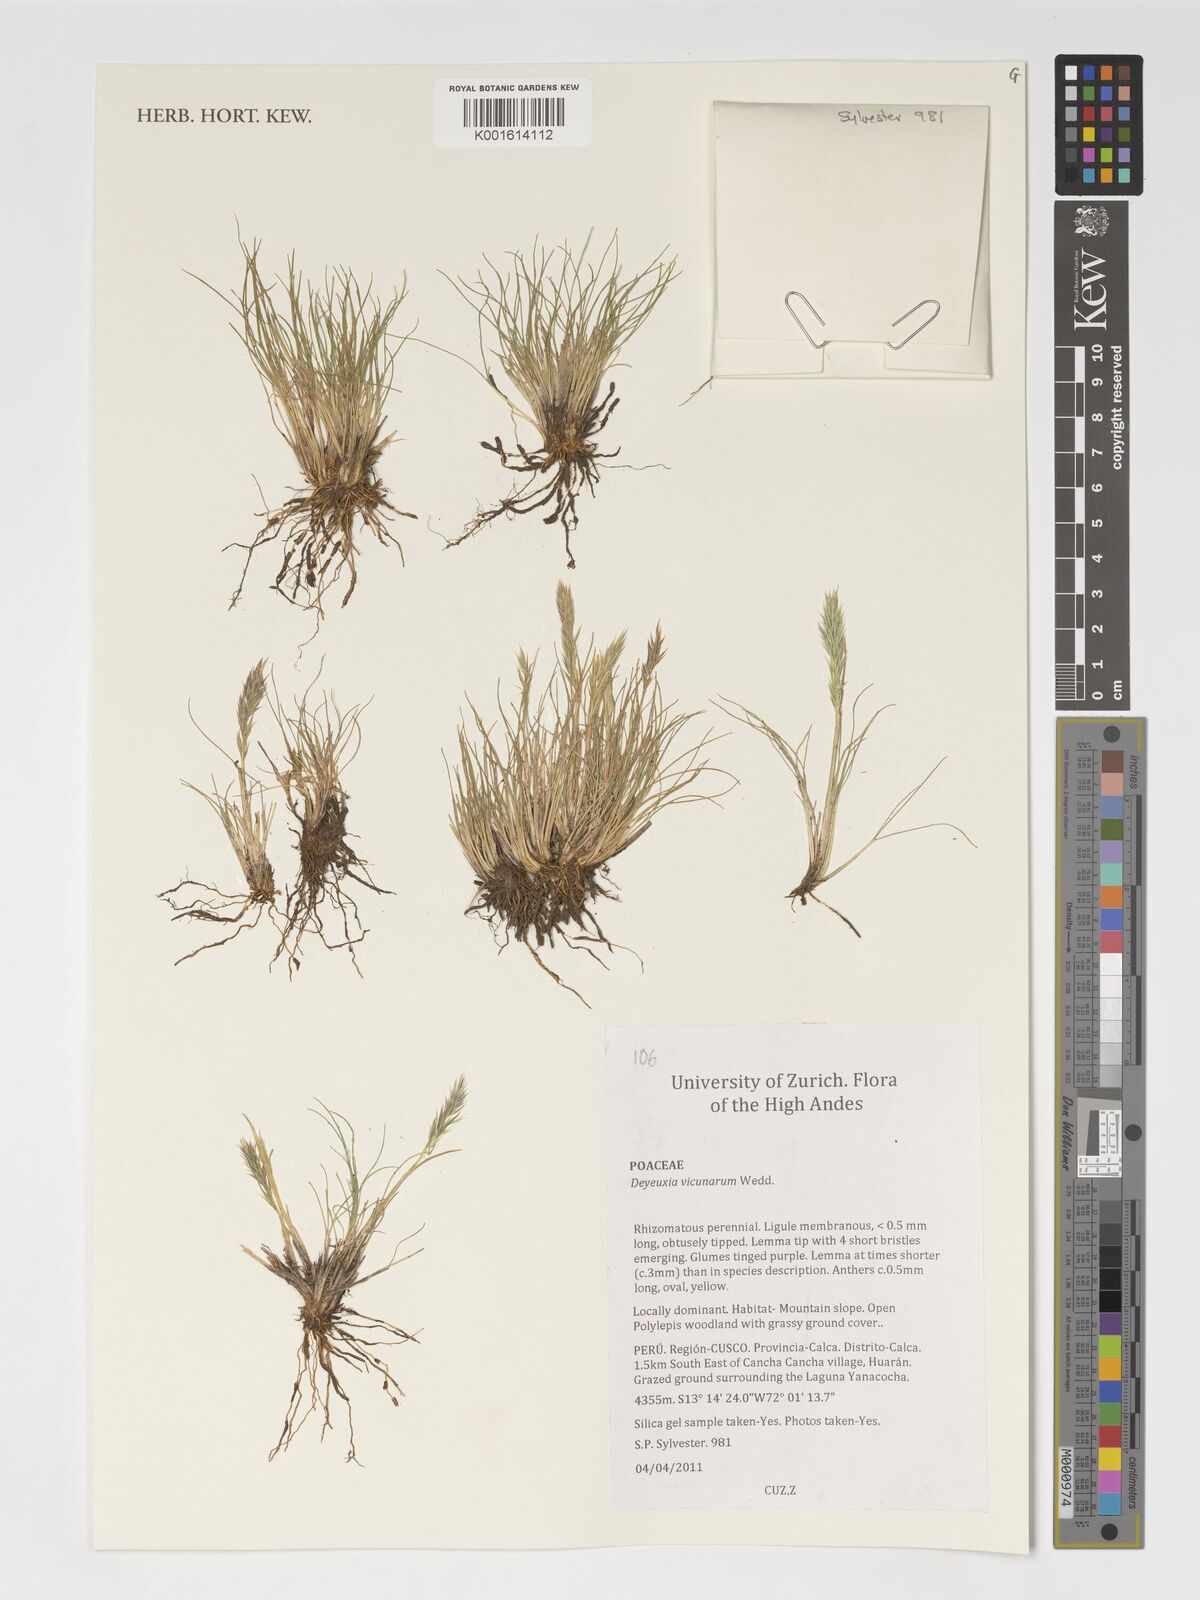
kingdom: Plantae
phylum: Tracheophyta
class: Liliopsida
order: Poales
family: Poaceae
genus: Cinnagrostis
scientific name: Cinnagrostis vicunarum
